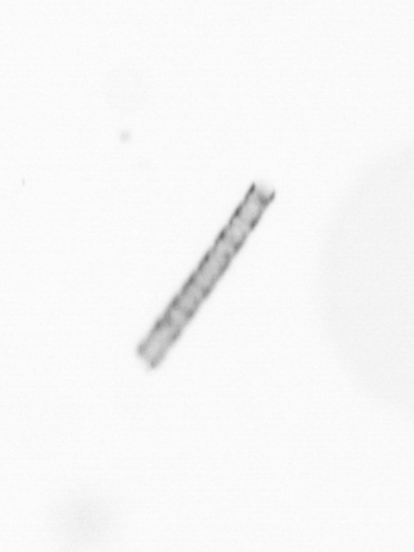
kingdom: Chromista
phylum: Ochrophyta
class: Bacillariophyceae
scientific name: Bacillariophyceae
